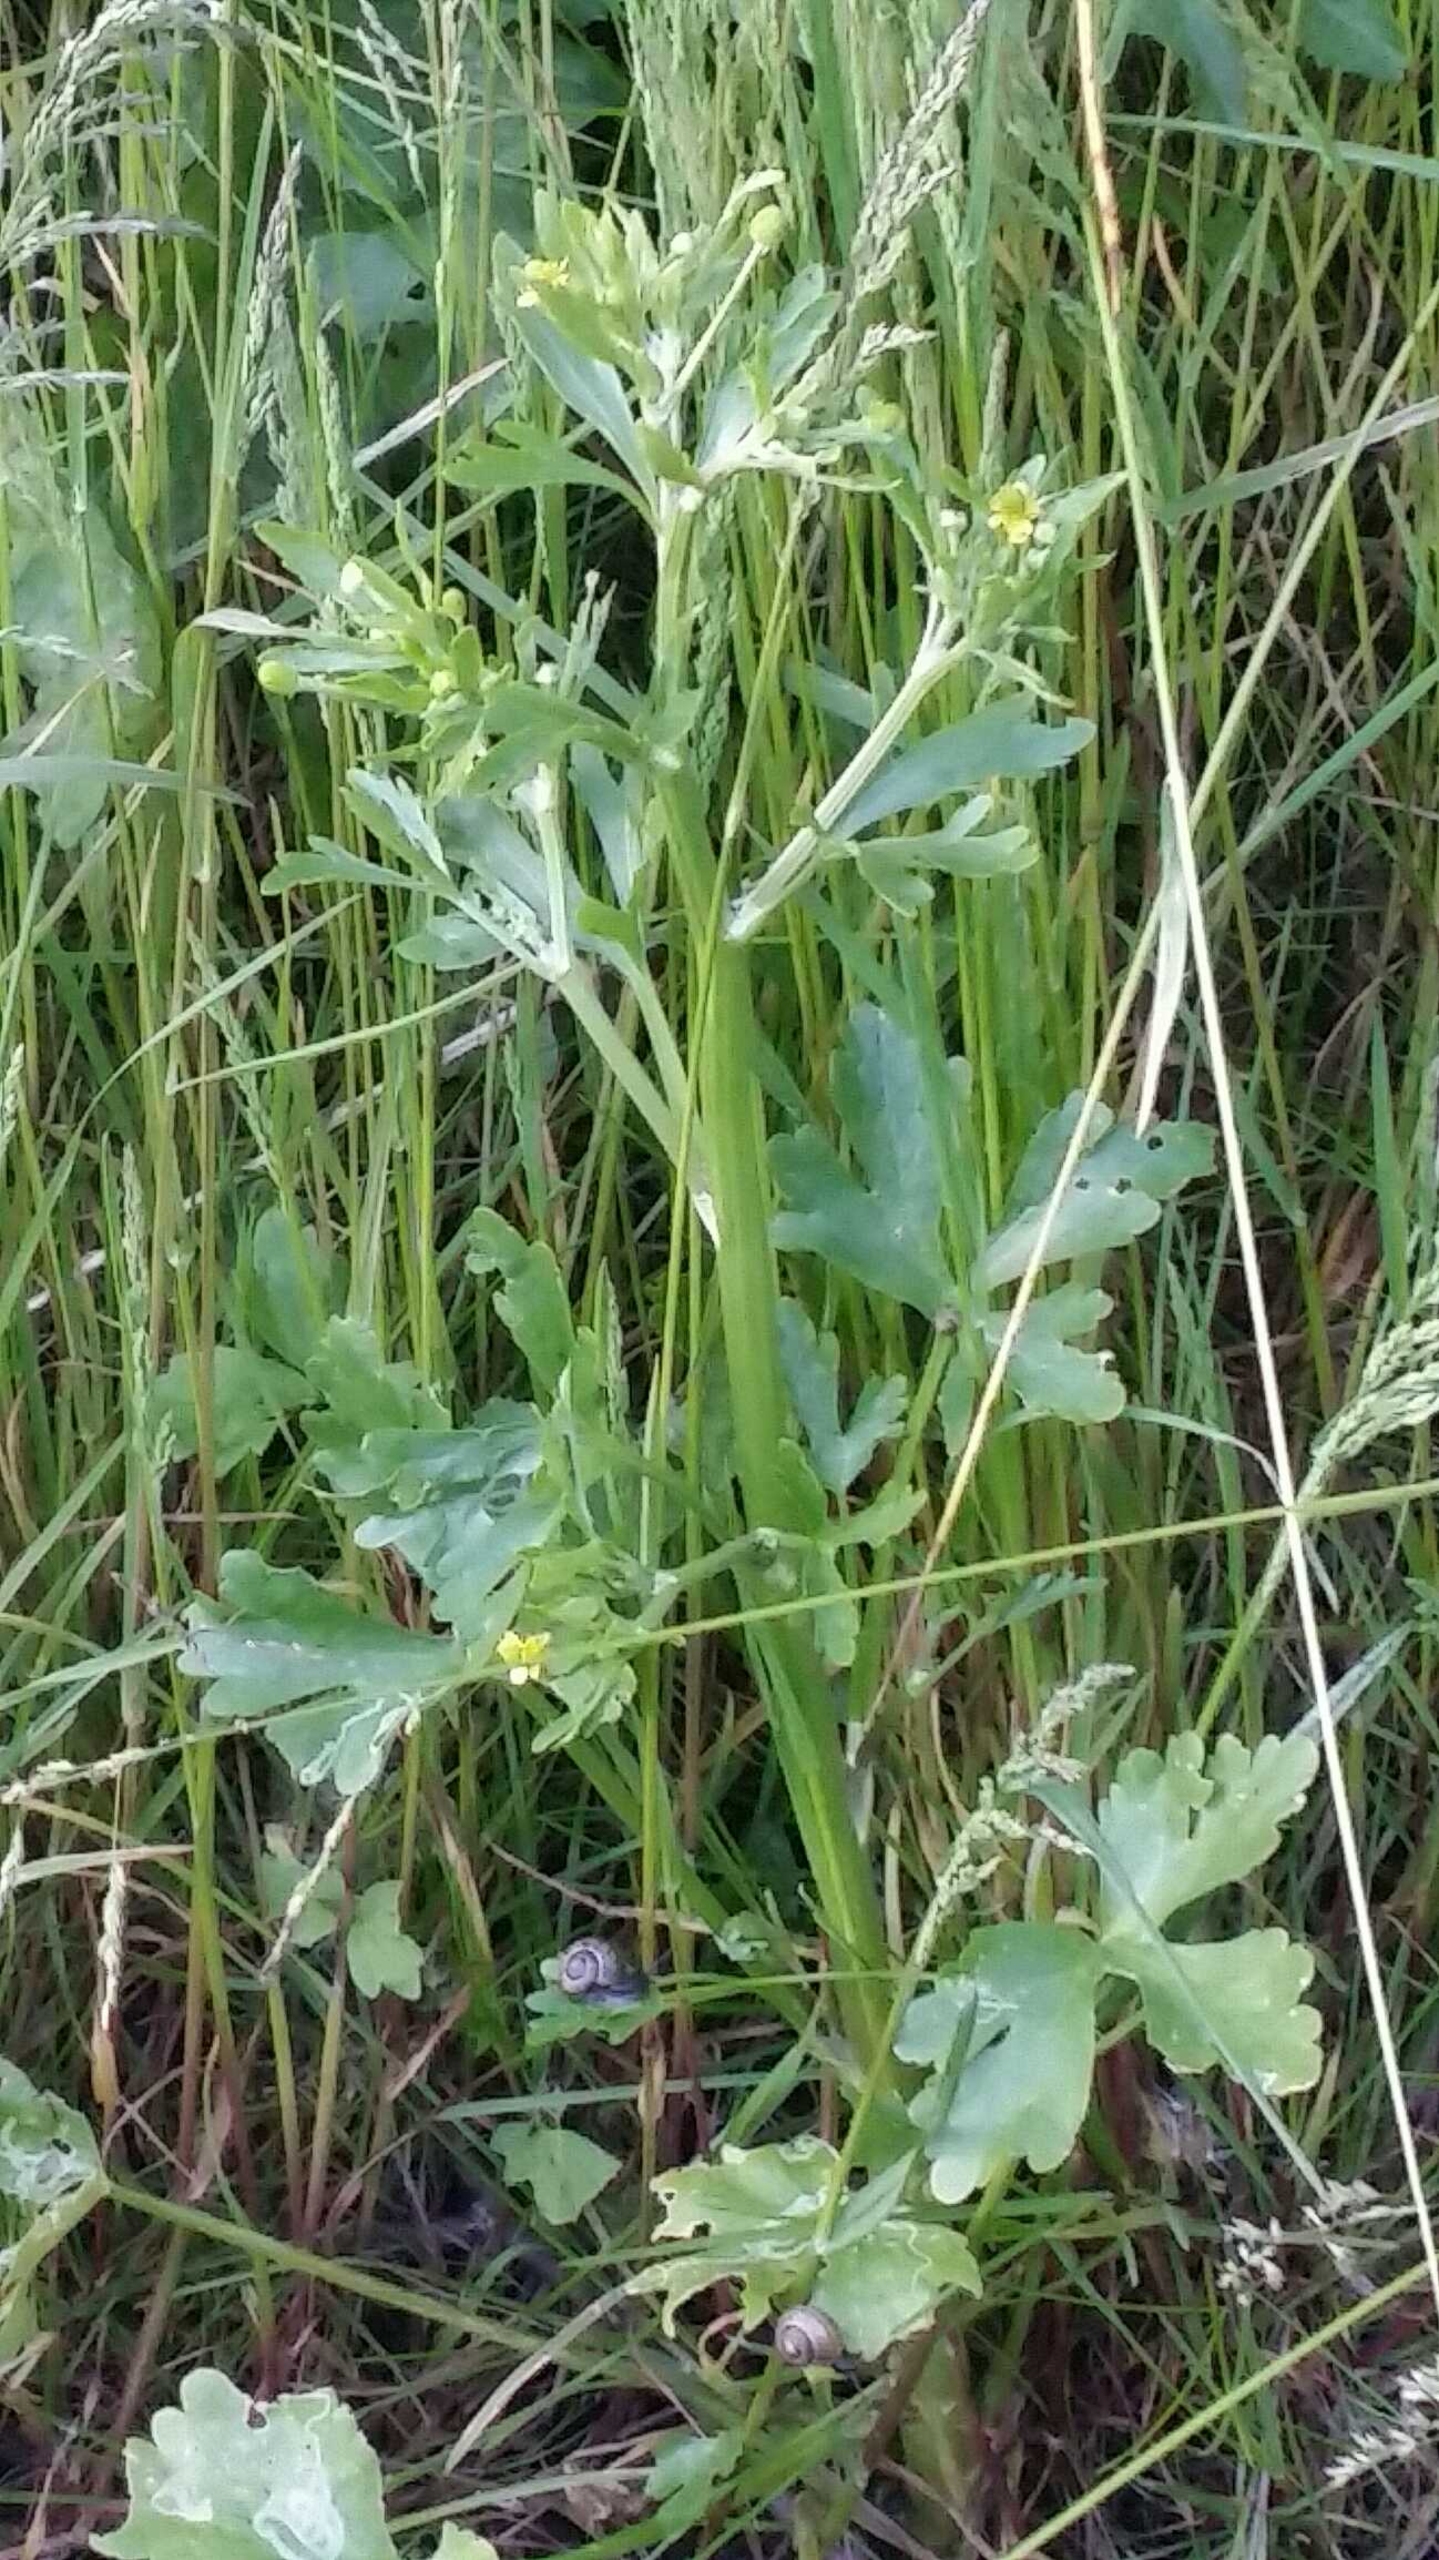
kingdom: Plantae
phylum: Tracheophyta
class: Magnoliopsida
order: Ranunculales
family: Ranunculaceae
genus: Ranunculus
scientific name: Ranunculus sceleratus
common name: Tigger-ranunkel
